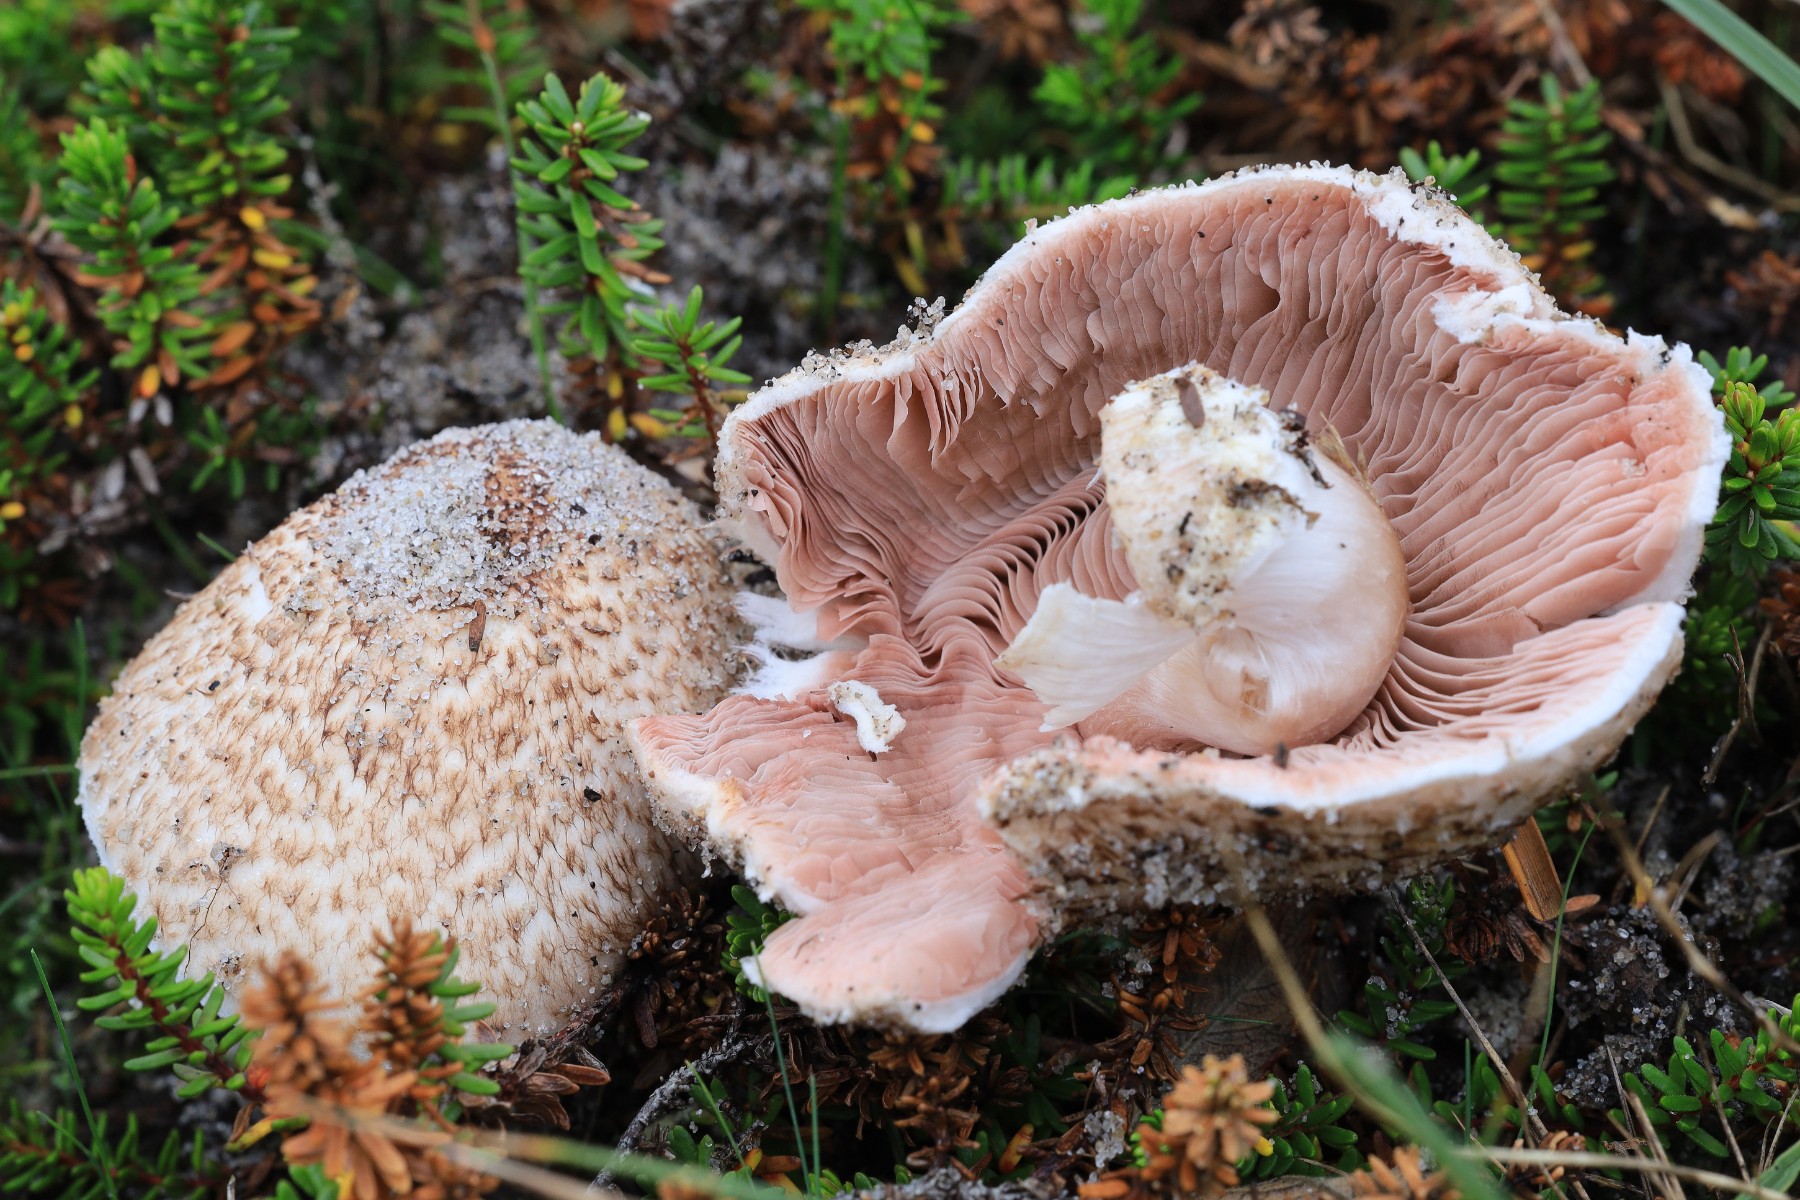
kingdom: Fungi
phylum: Basidiomycota
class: Agaricomycetes
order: Agaricales
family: Agaricaceae
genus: Agaricus
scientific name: Agaricus impudicus
